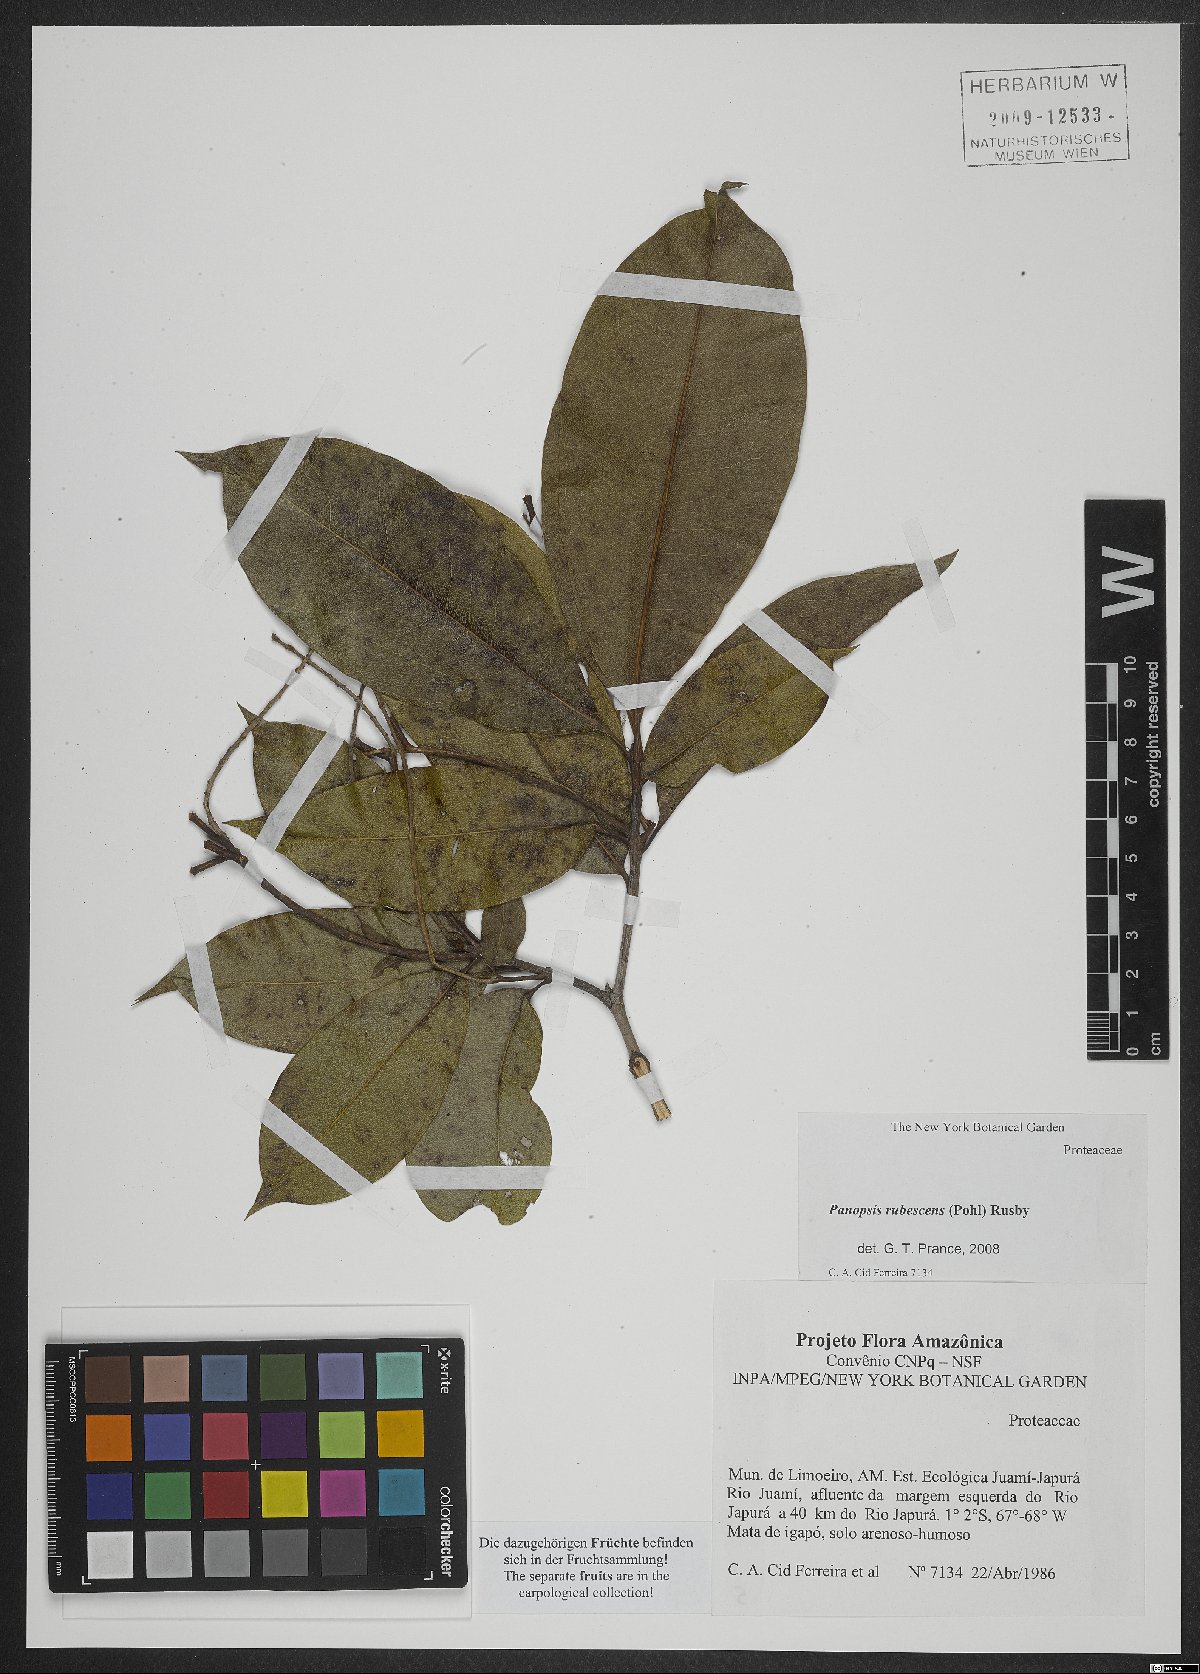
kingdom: Plantae
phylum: Tracheophyta
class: Magnoliopsida
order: Proteales
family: Proteaceae
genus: Panopsis
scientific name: Panopsis rubescens
